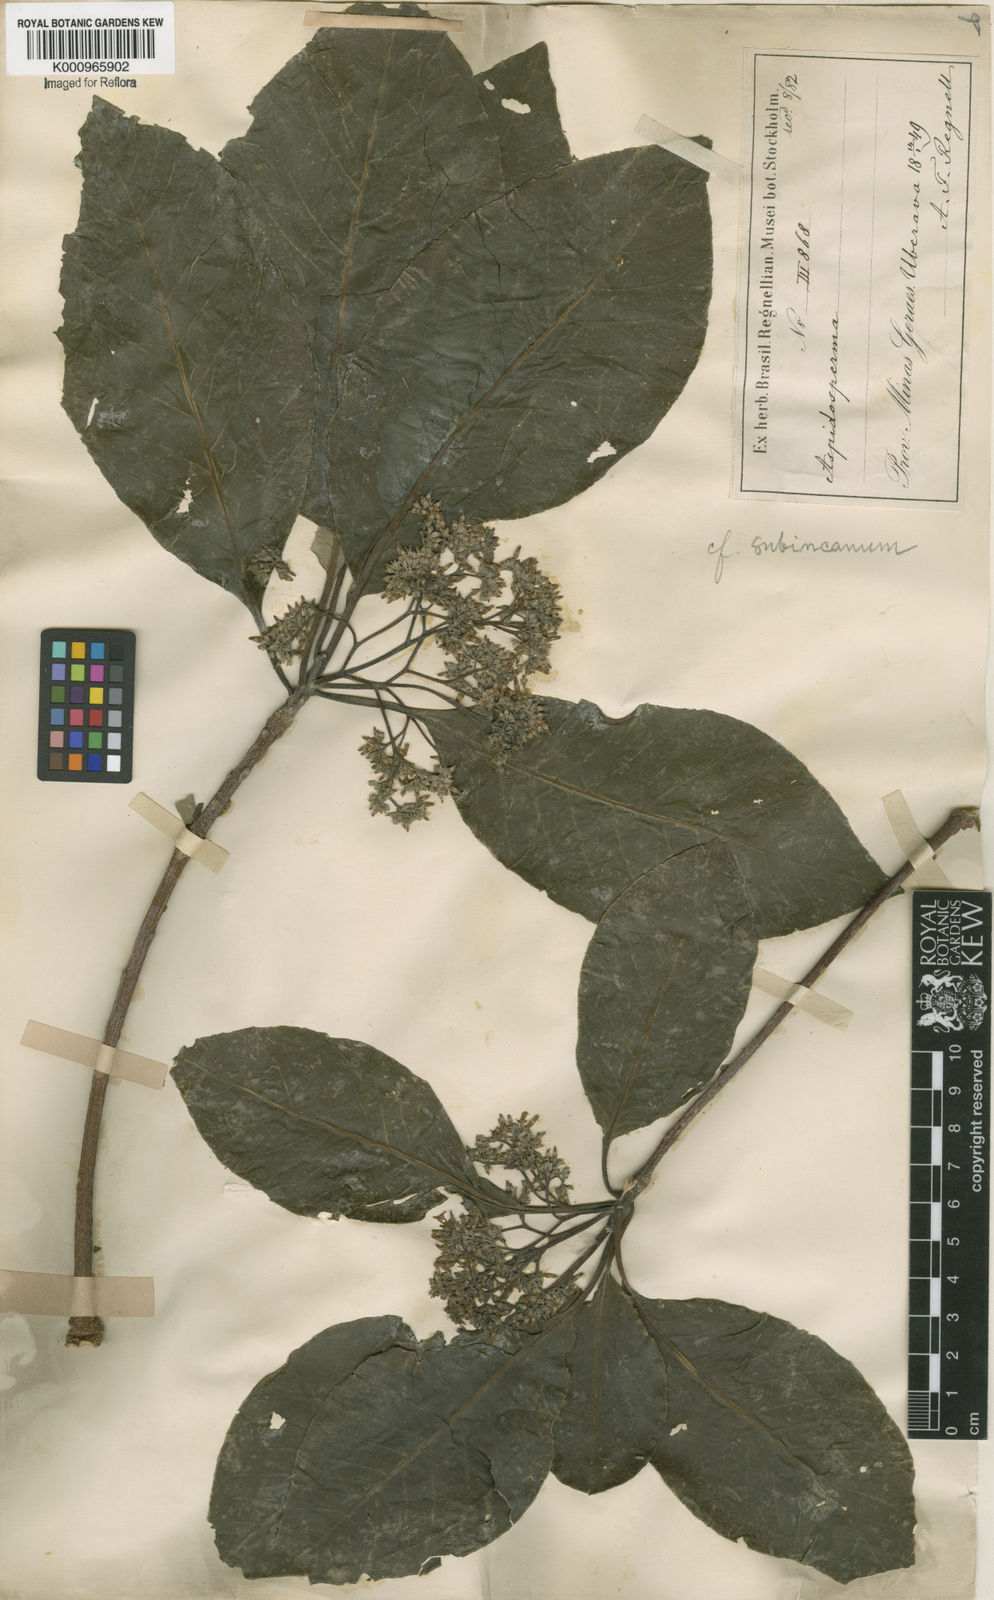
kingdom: Plantae
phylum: Tracheophyta
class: Magnoliopsida
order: Gentianales
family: Apocynaceae
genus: Aspidosperma
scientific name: Aspidosperma subincanum
